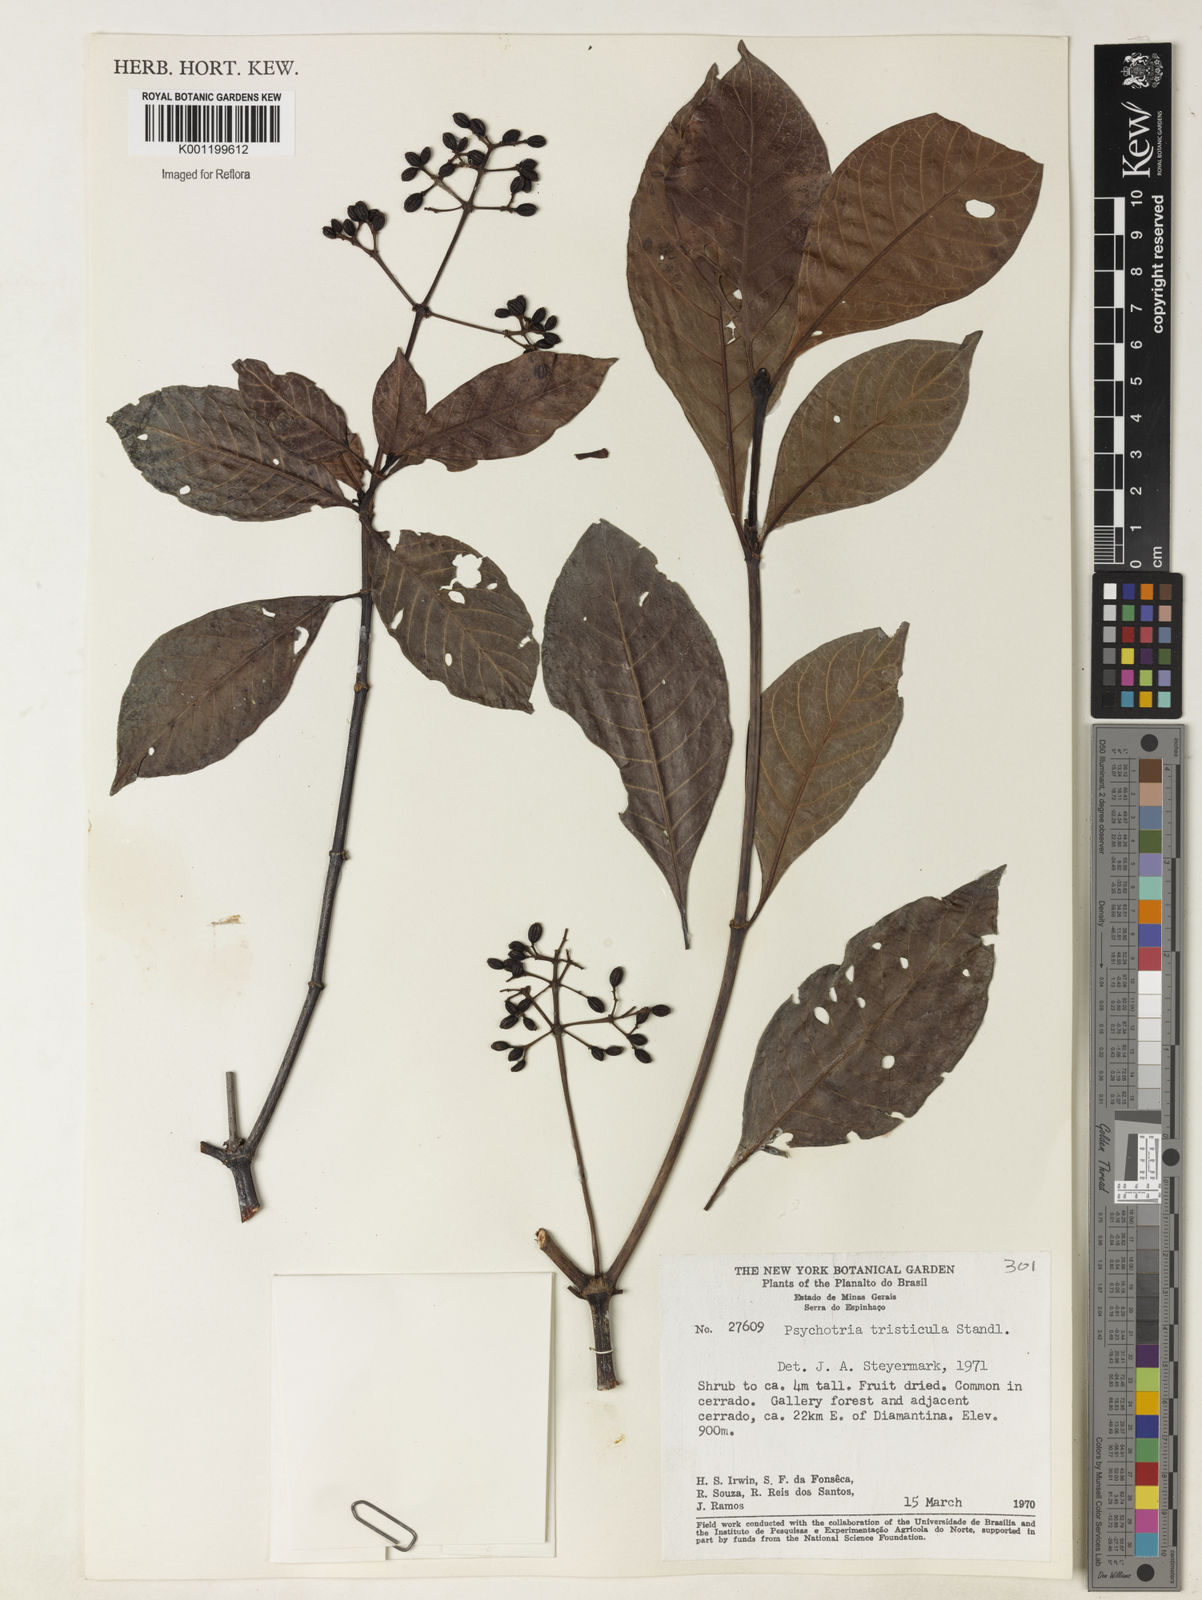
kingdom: Plantae
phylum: Tracheophyta
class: Magnoliopsida
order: Gentianales
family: Rubiaceae
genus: Psychotria
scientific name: Psychotria carthagenensis
